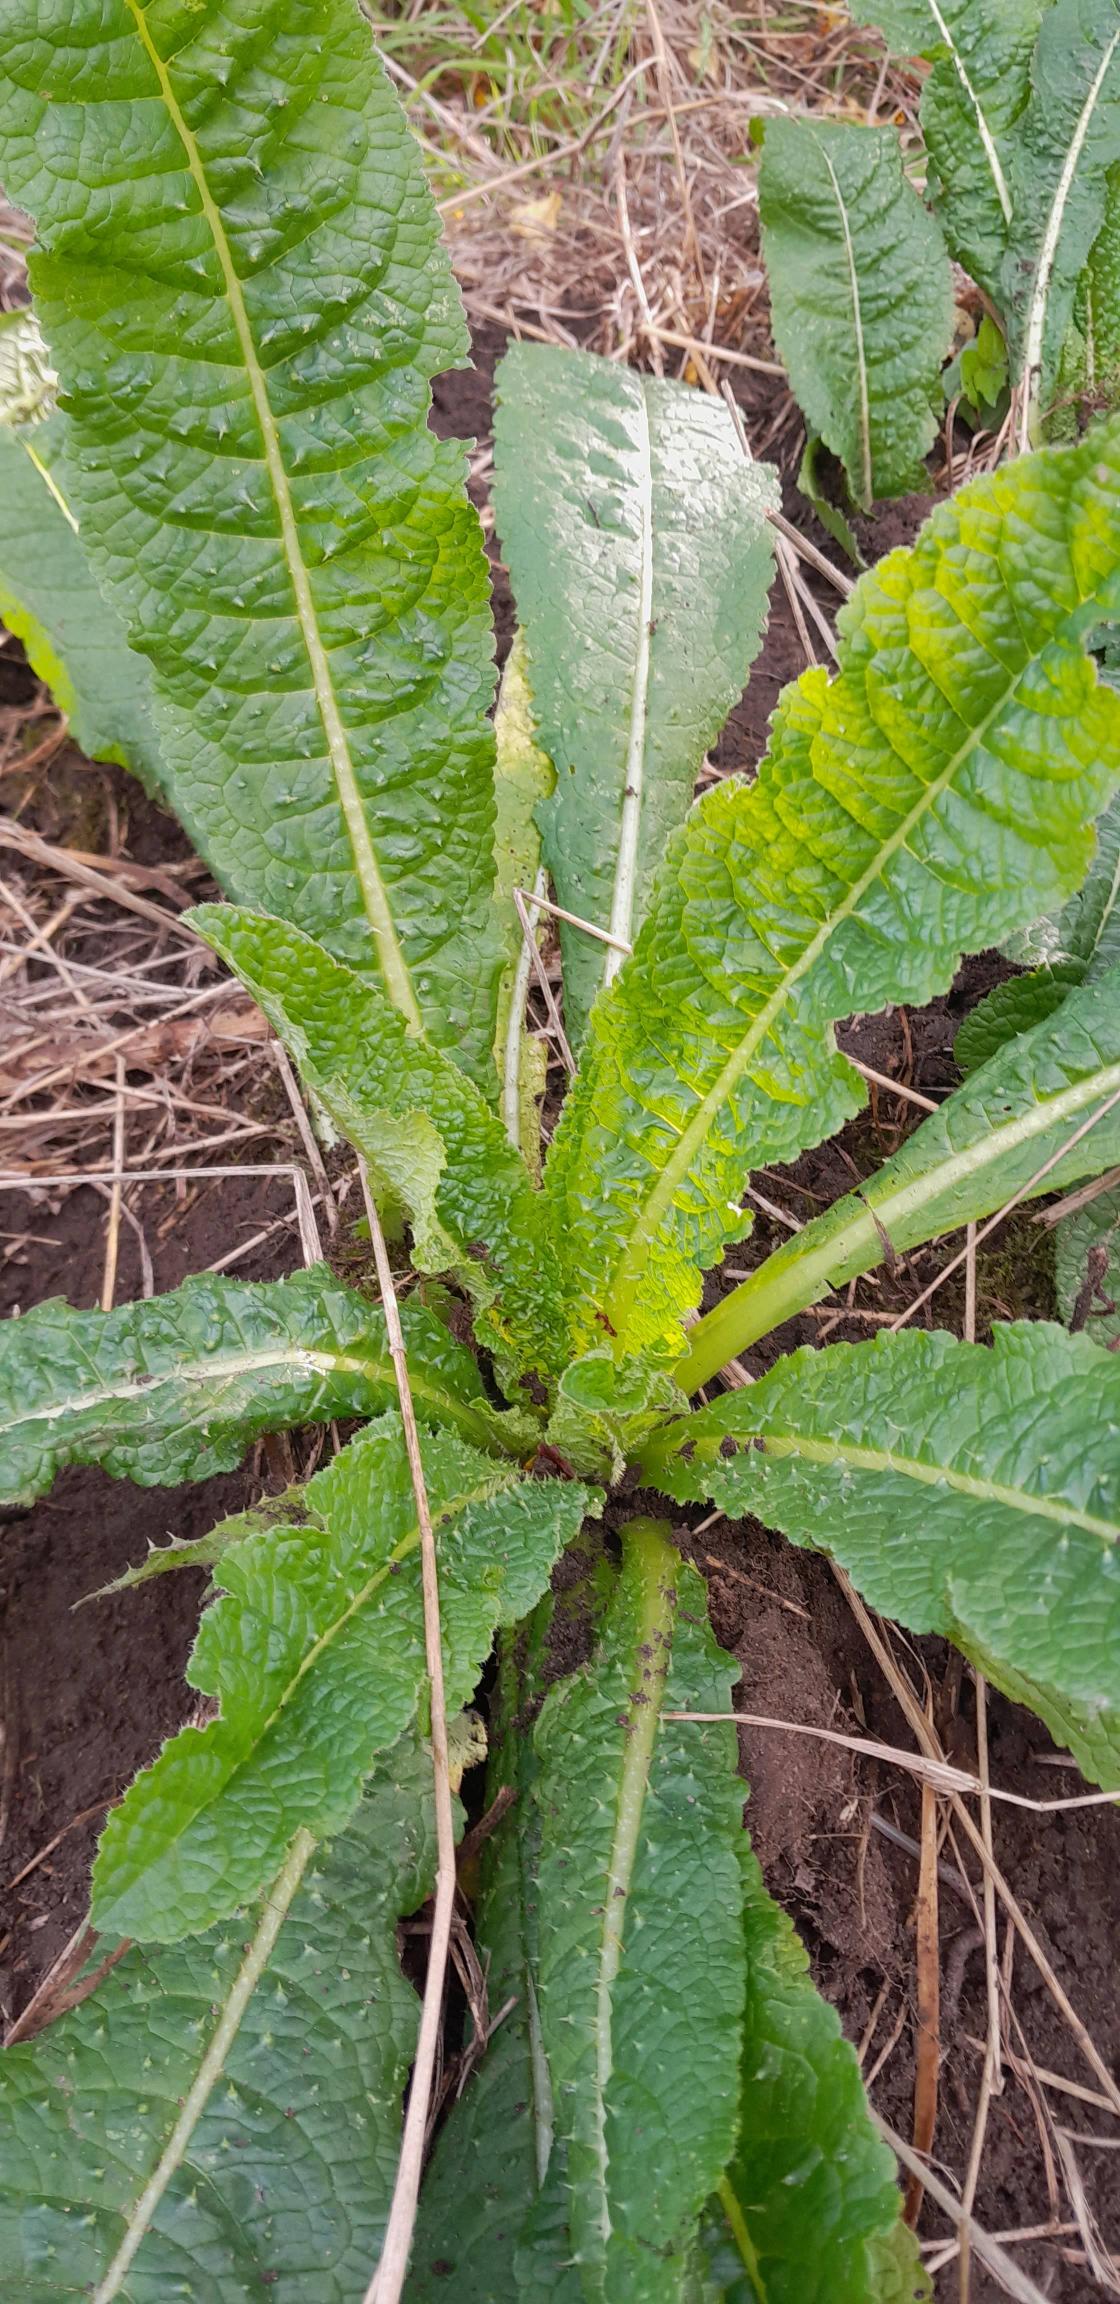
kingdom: Plantae
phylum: Tracheophyta
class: Magnoliopsida
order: Dipsacales
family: Caprifoliaceae
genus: Dipsacus
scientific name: Dipsacus fullonum
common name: Gærde-kartebolle
